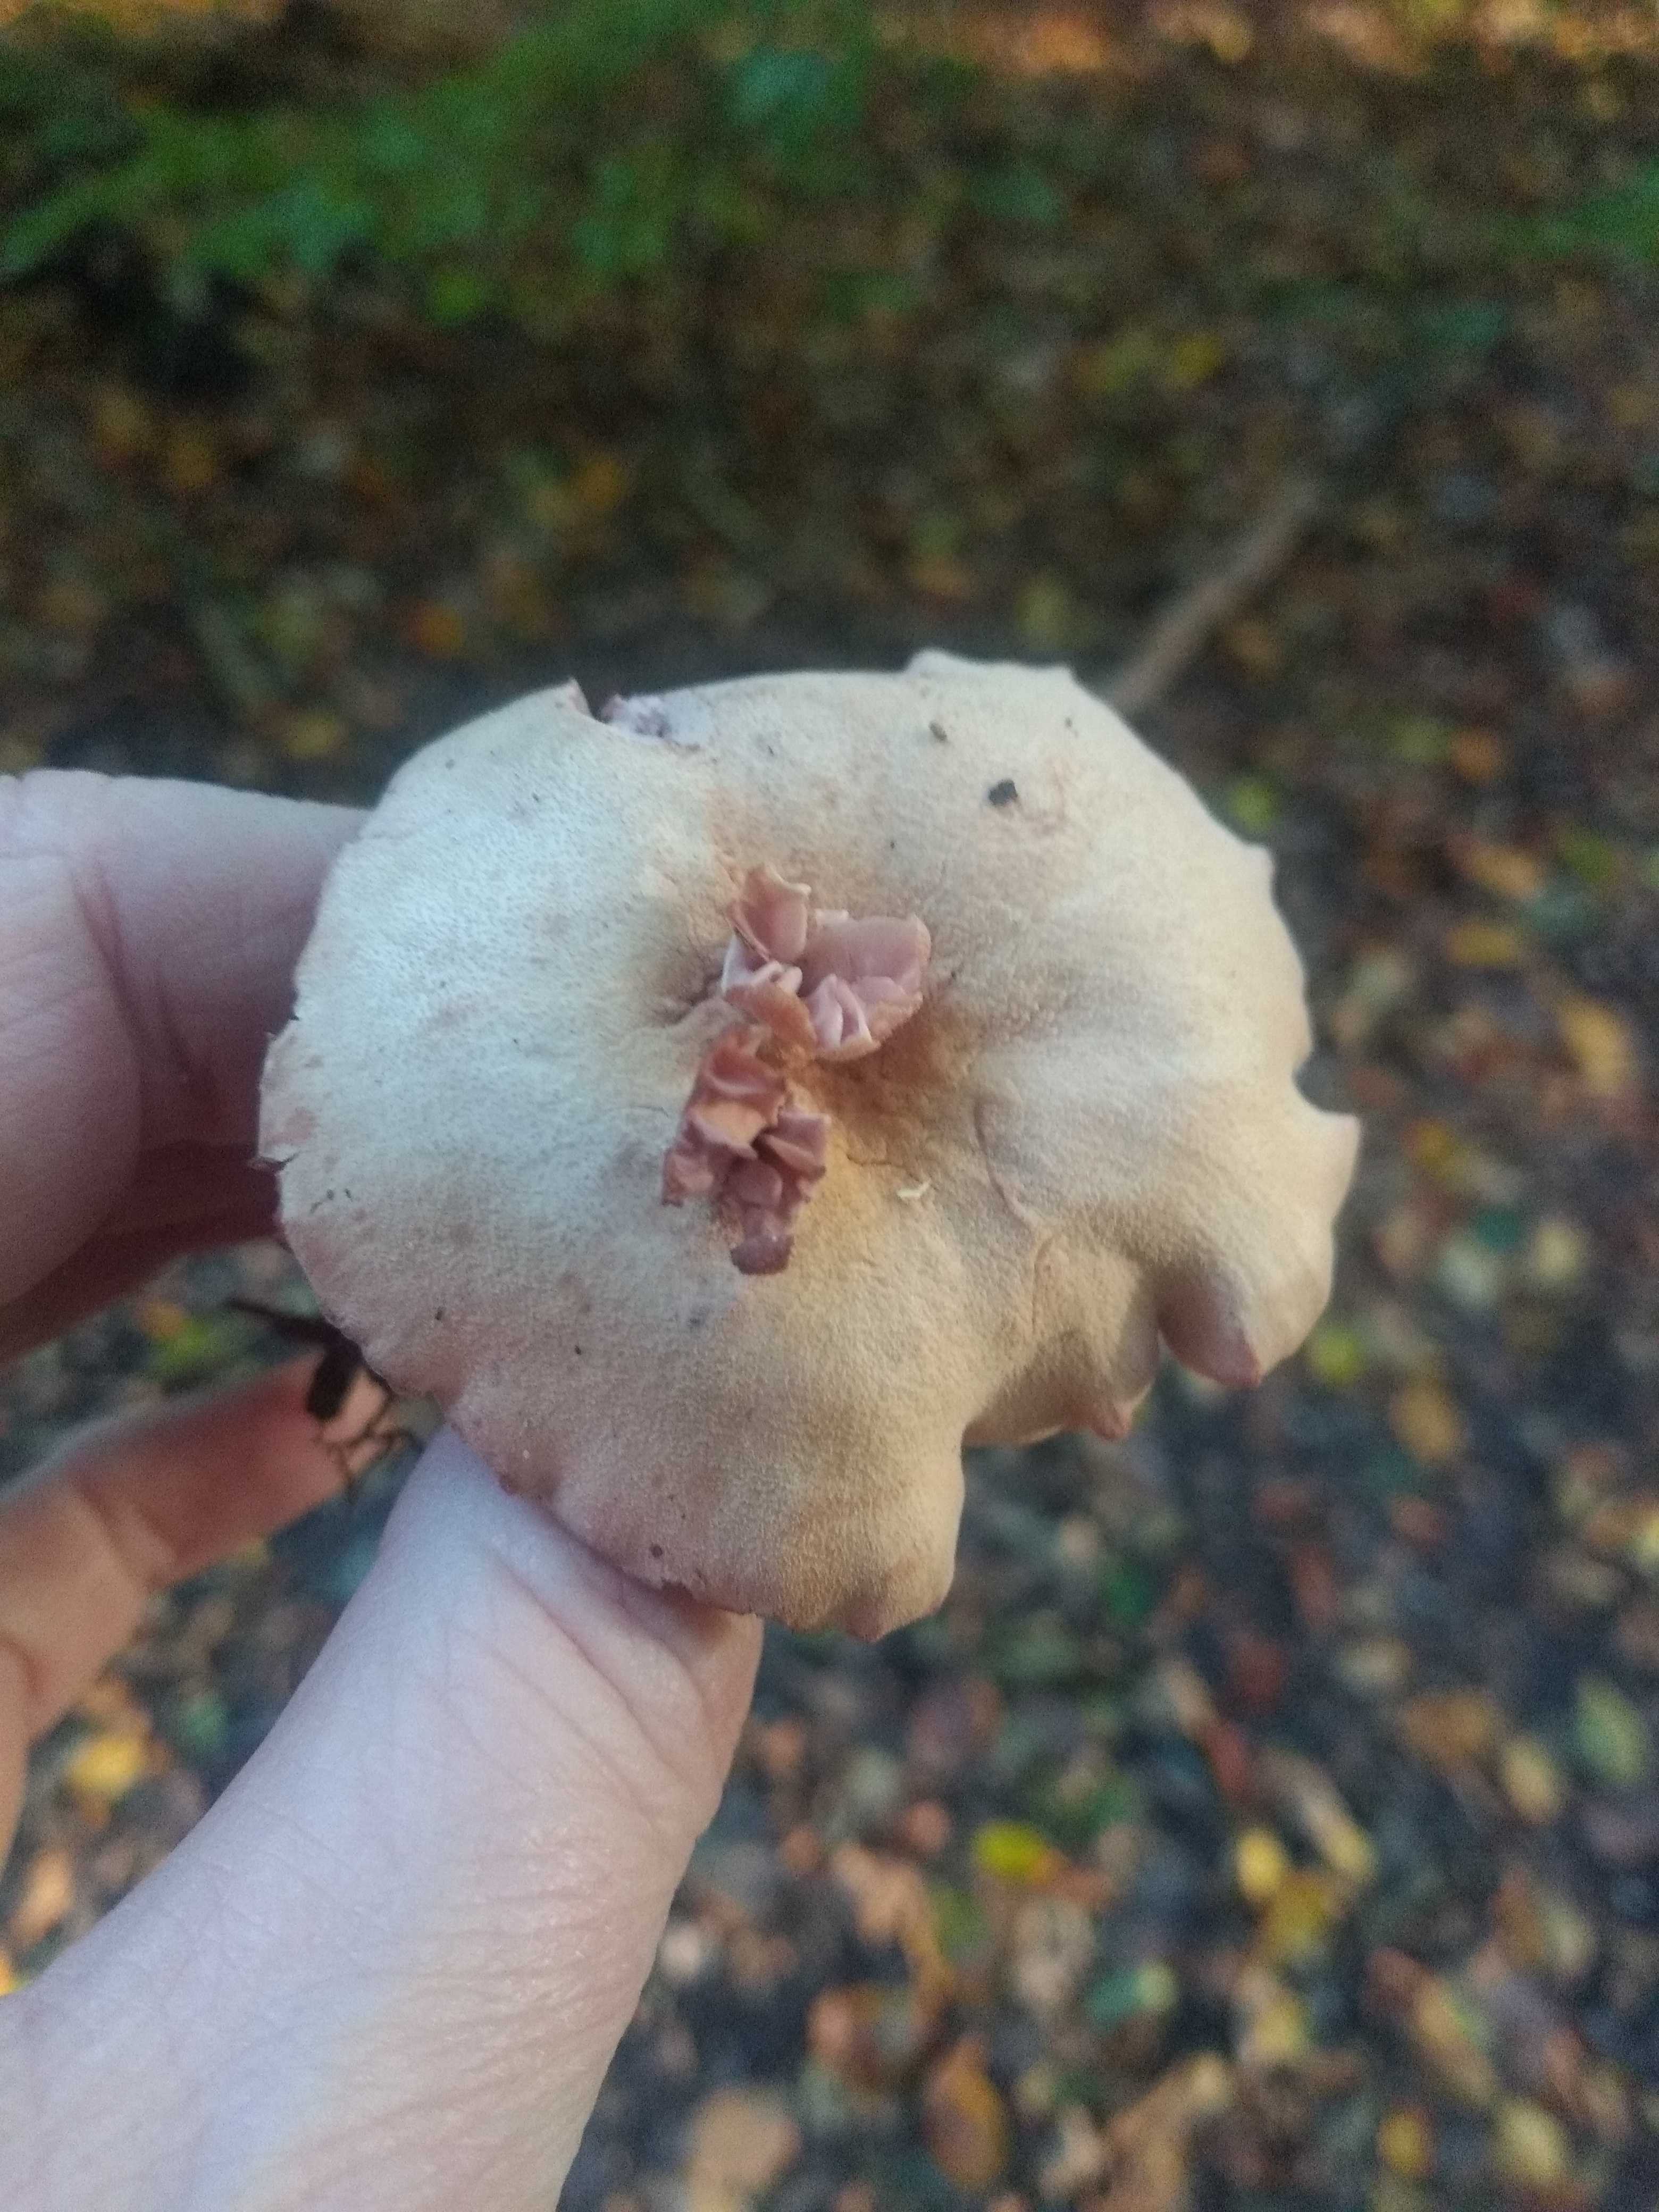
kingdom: Fungi
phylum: Basidiomycota
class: Agaricomycetes
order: Agaricales
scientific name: Agaricales
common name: champignonordenen
